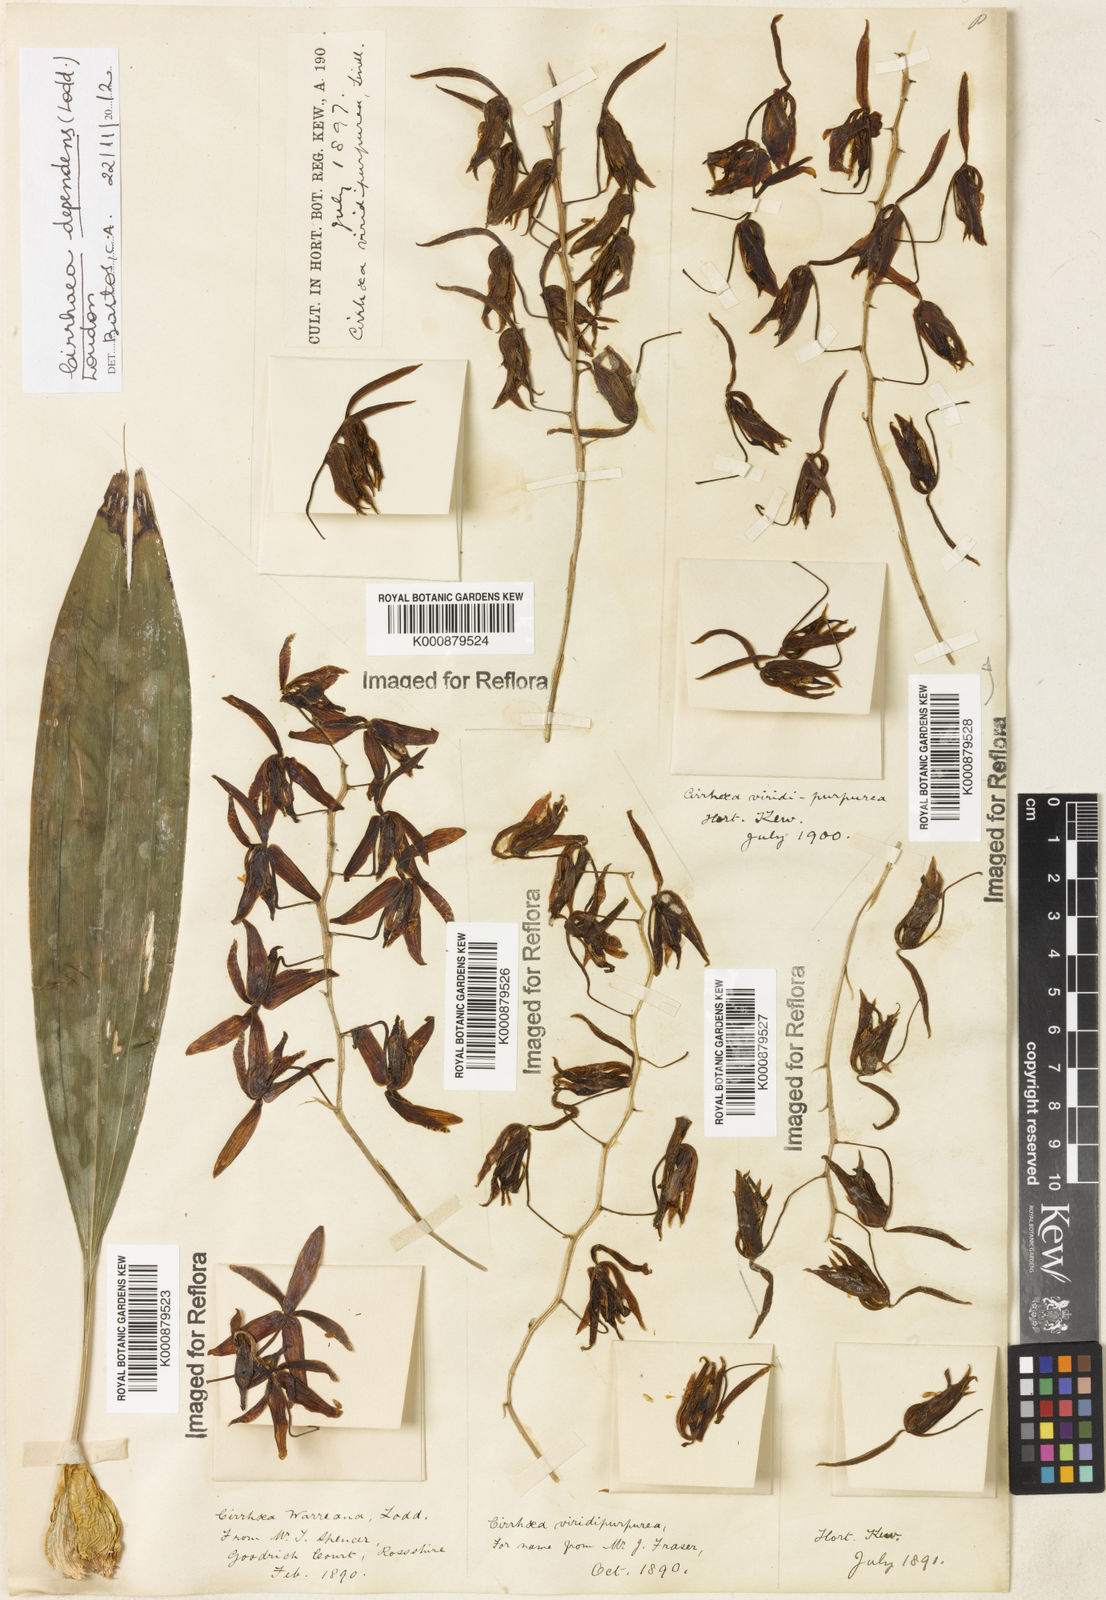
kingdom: Plantae
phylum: Tracheophyta
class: Liliopsida
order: Asparagales
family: Orchidaceae
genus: Cirrhaea
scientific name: Cirrhaea
